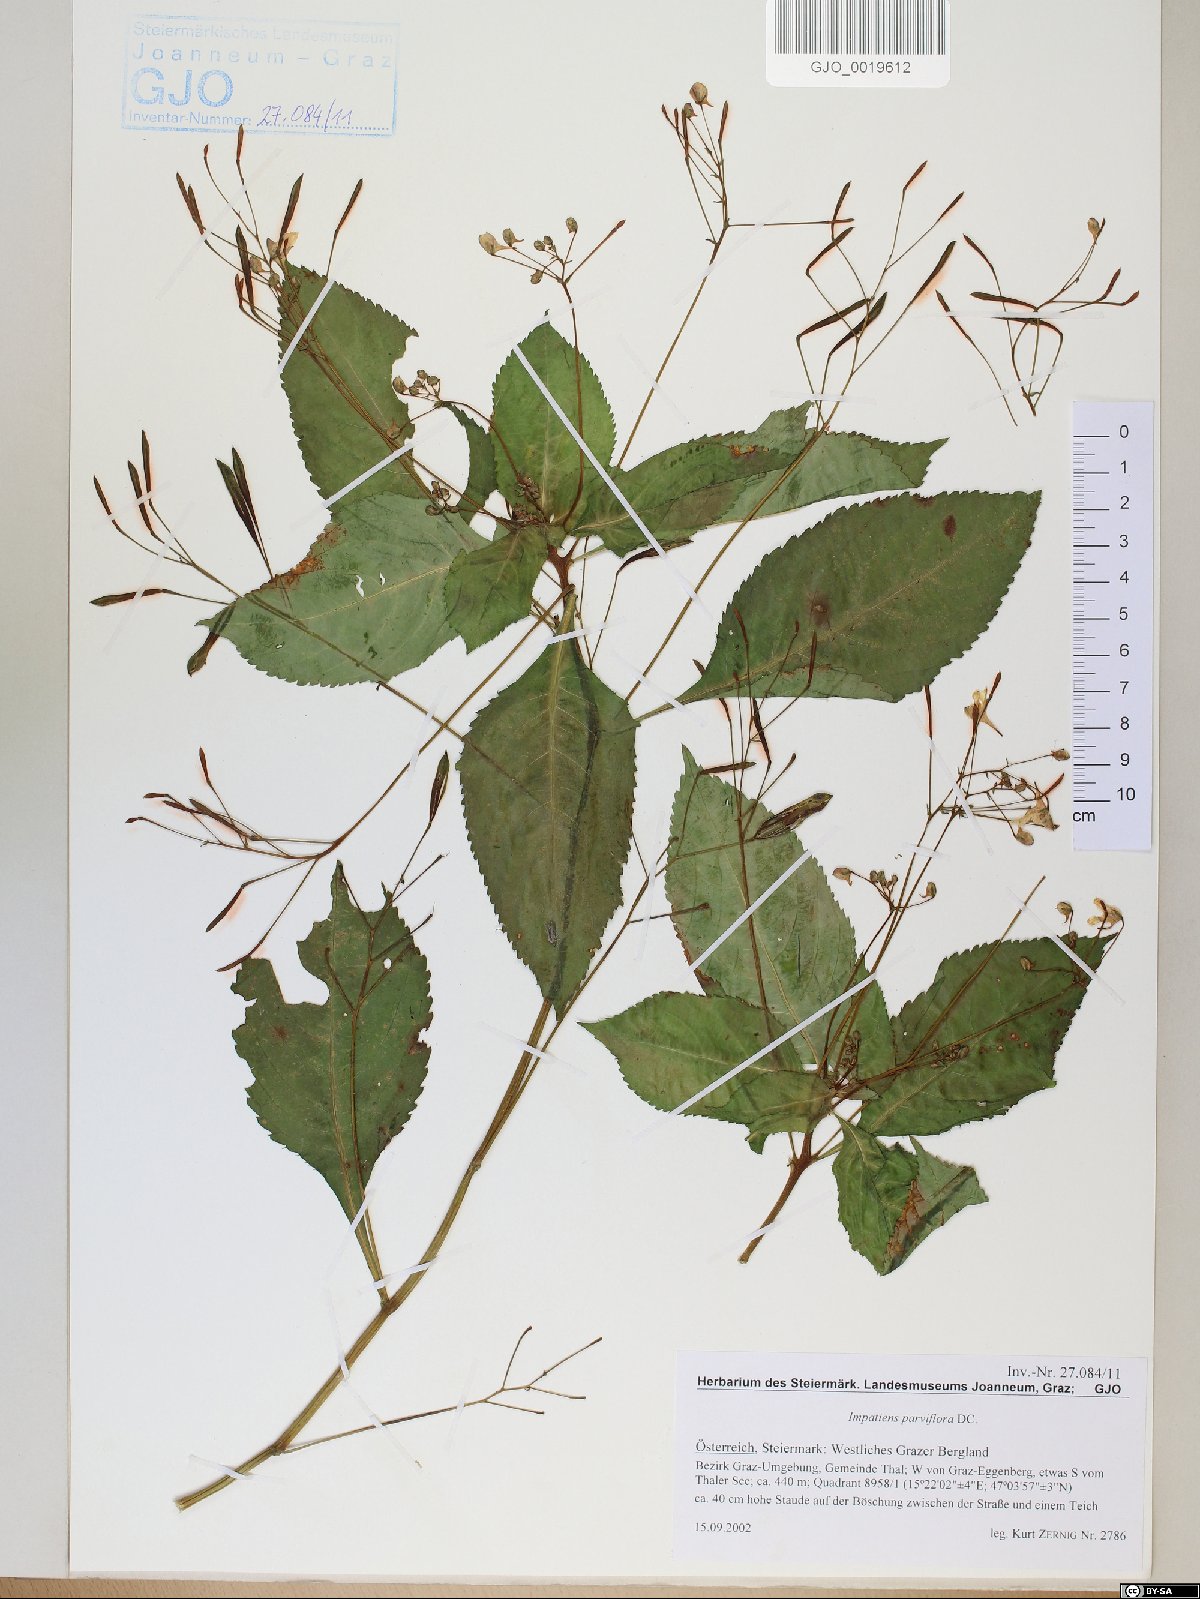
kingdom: Plantae
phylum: Tracheophyta
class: Magnoliopsida
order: Ericales
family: Balsaminaceae
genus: Impatiens
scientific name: Impatiens parviflora
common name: Small balsam
